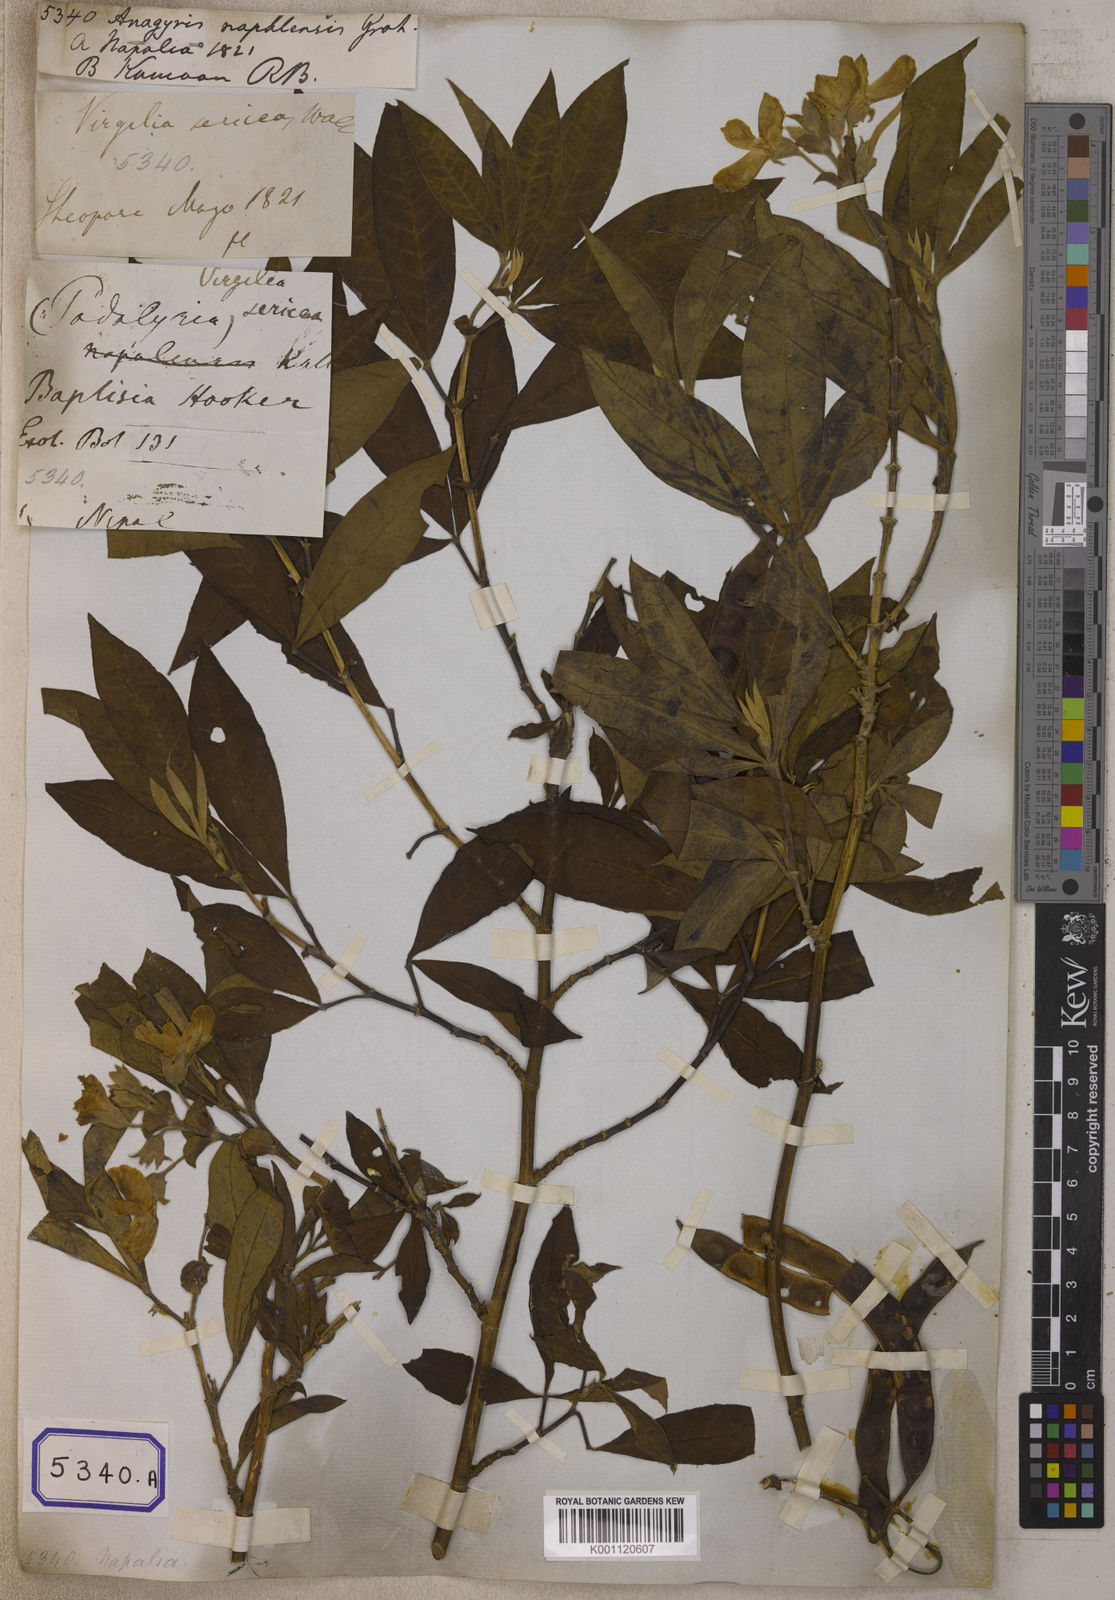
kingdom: Plantae
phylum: Tracheophyta
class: Magnoliopsida
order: Fabales
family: Fabaceae
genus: Piptanthus
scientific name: Piptanthus nepalensis
